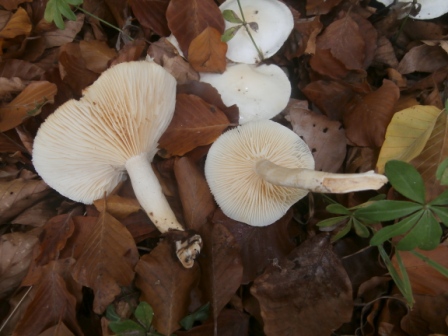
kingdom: Fungi
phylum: Basidiomycota
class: Agaricomycetes
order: Agaricales
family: Hygrophoraceae
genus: Hygrophorus
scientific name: Hygrophorus discoxanthus
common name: ildelugtende sneglehat
